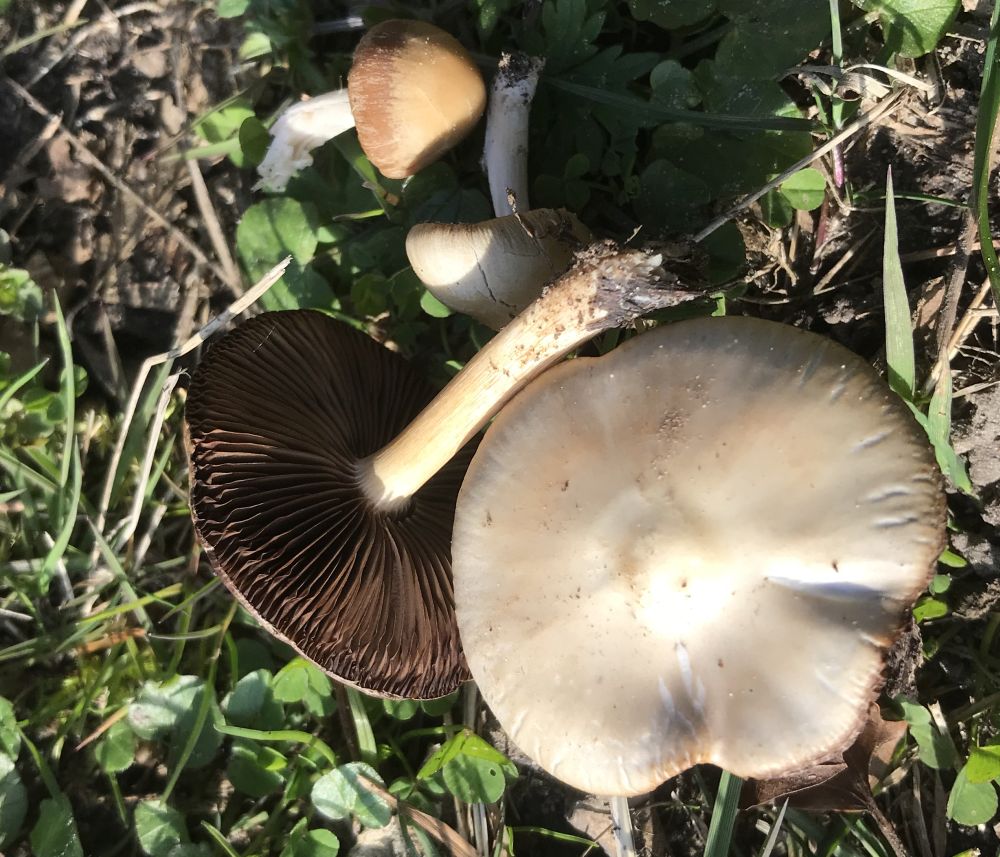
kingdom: Fungi
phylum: Basidiomycota
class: Agaricomycetes
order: Agaricales
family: Psathyrellaceae
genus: Psathyrella
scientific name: Psathyrella
